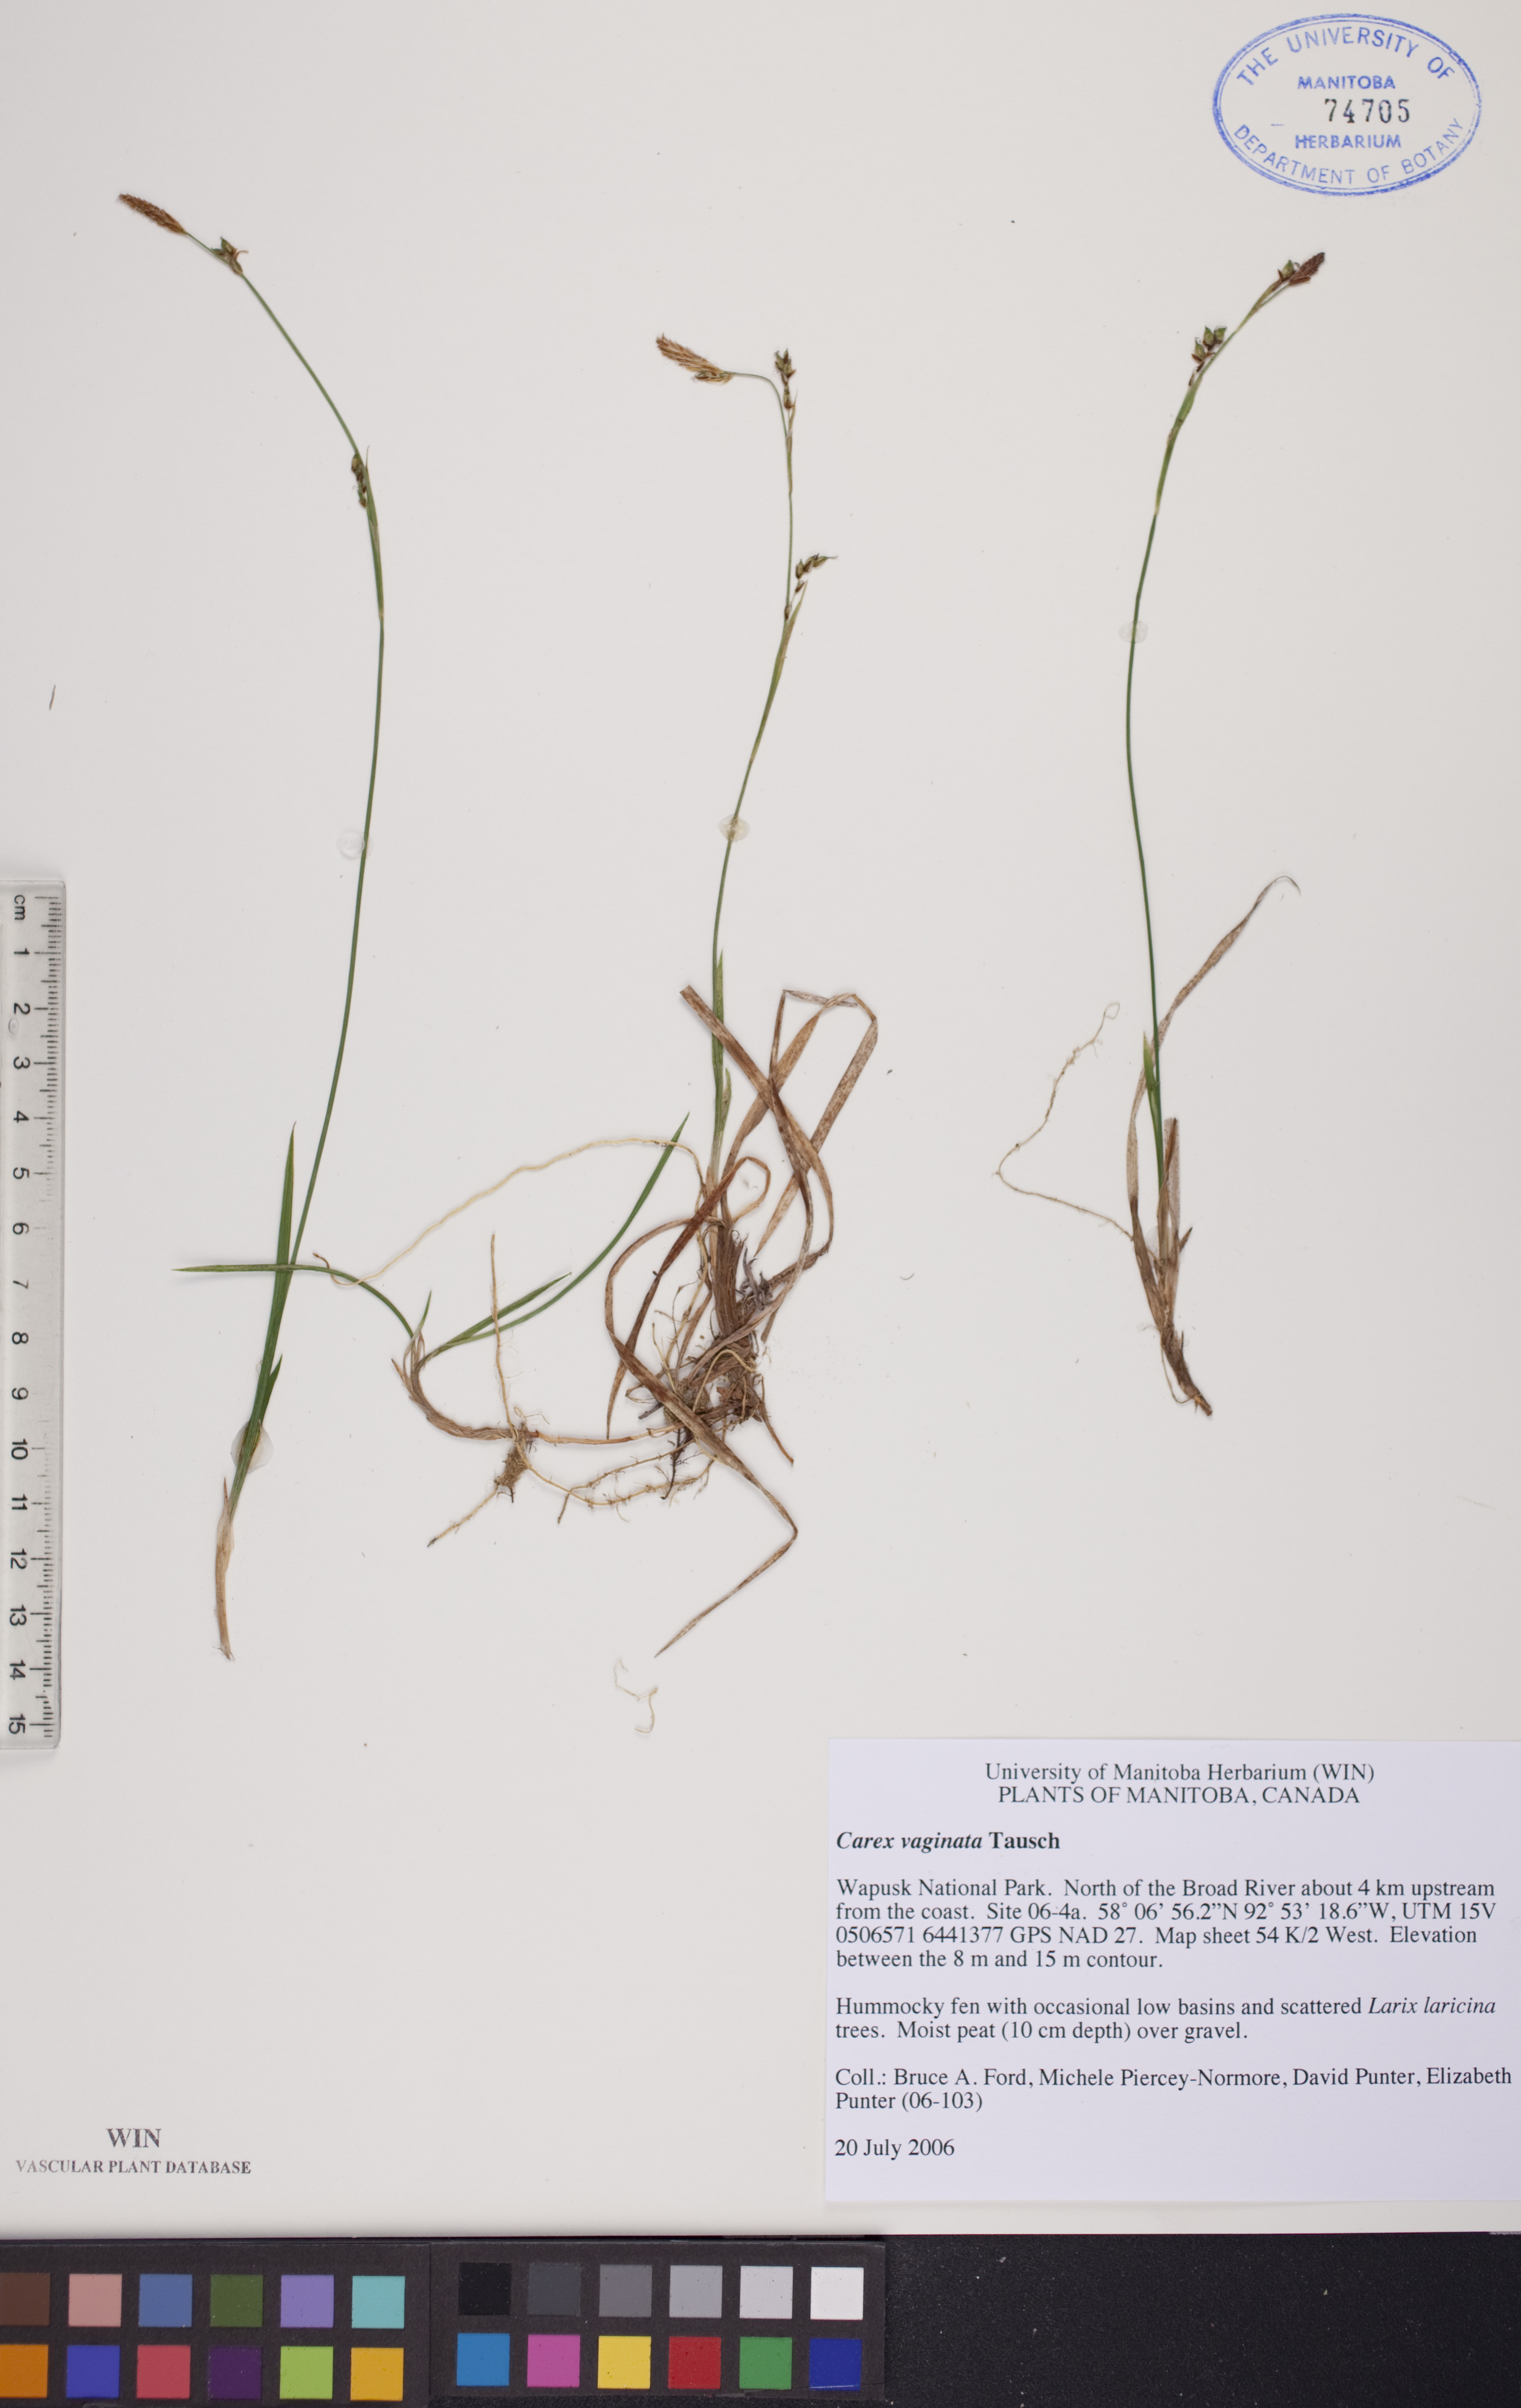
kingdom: Plantae
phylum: Tracheophyta
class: Liliopsida
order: Poales
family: Cyperaceae
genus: Carex
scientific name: Carex vaginata
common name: Sheathed sedge
